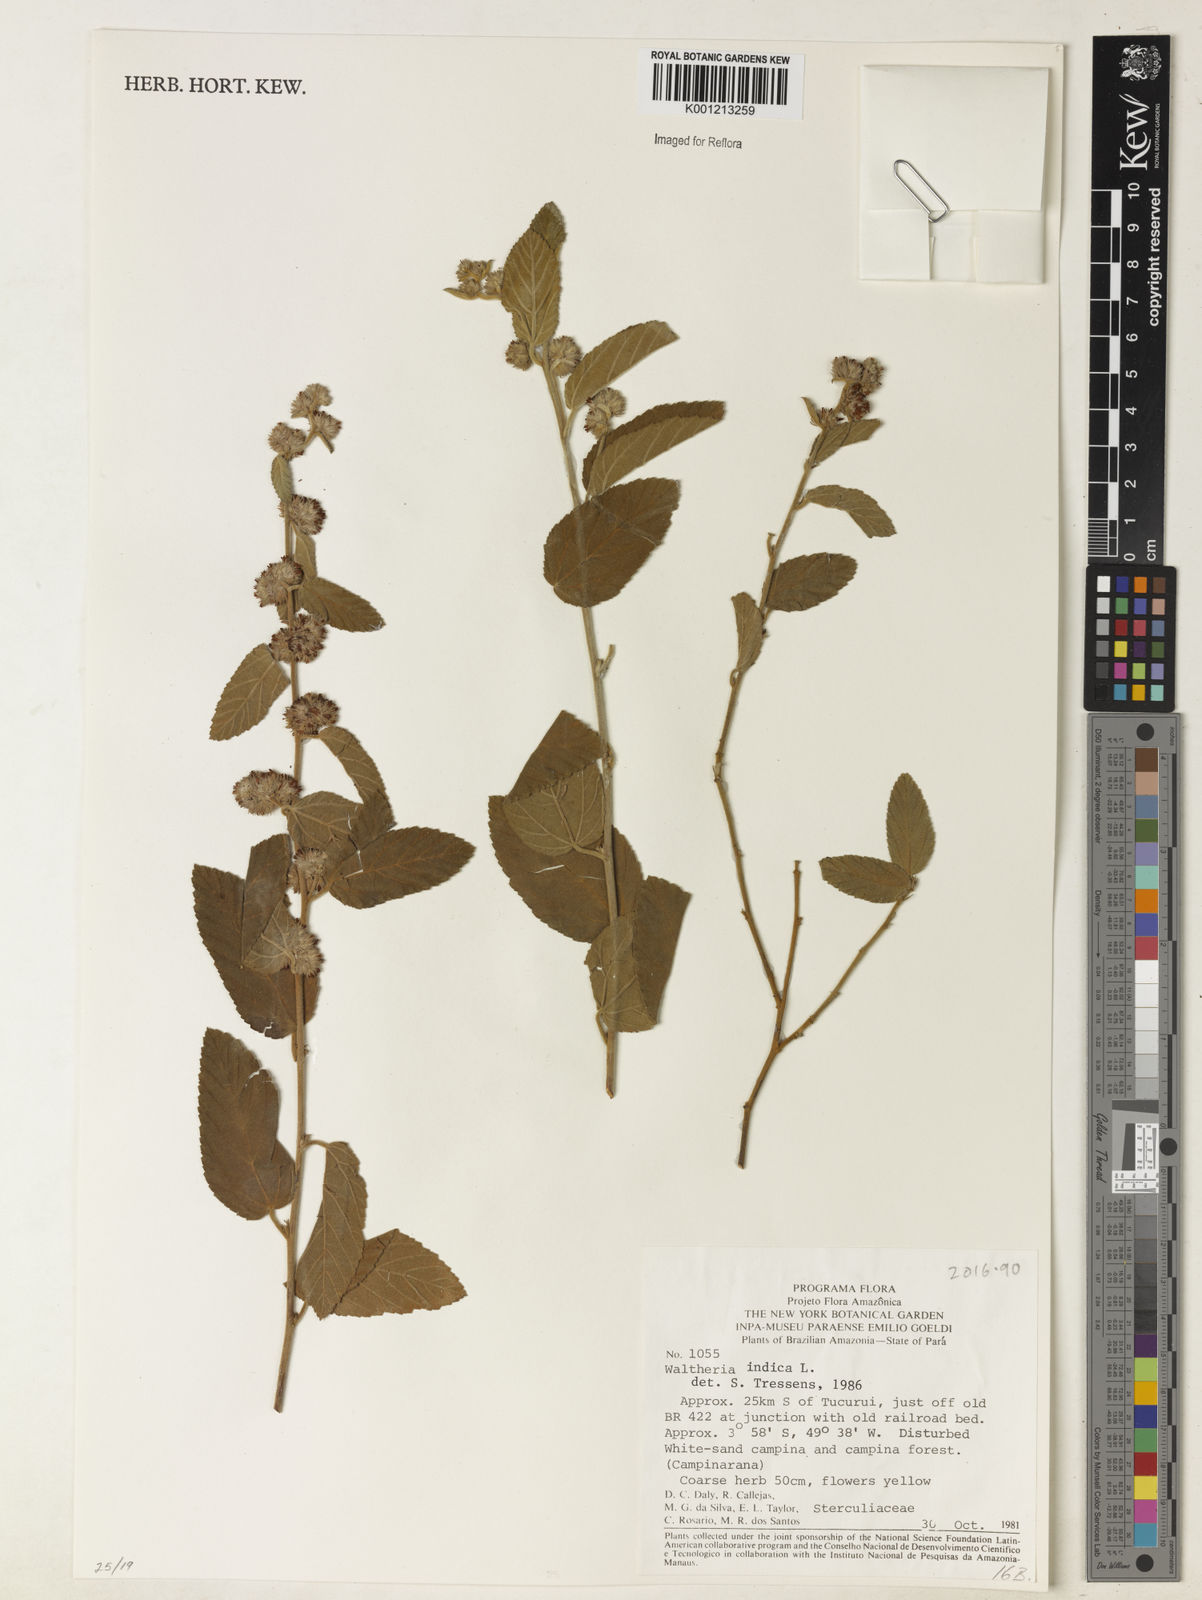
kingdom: Plantae
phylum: Tracheophyta
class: Magnoliopsida
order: Malvales
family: Malvaceae
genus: Waltheria
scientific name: Waltheria indica
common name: Leather-coat
